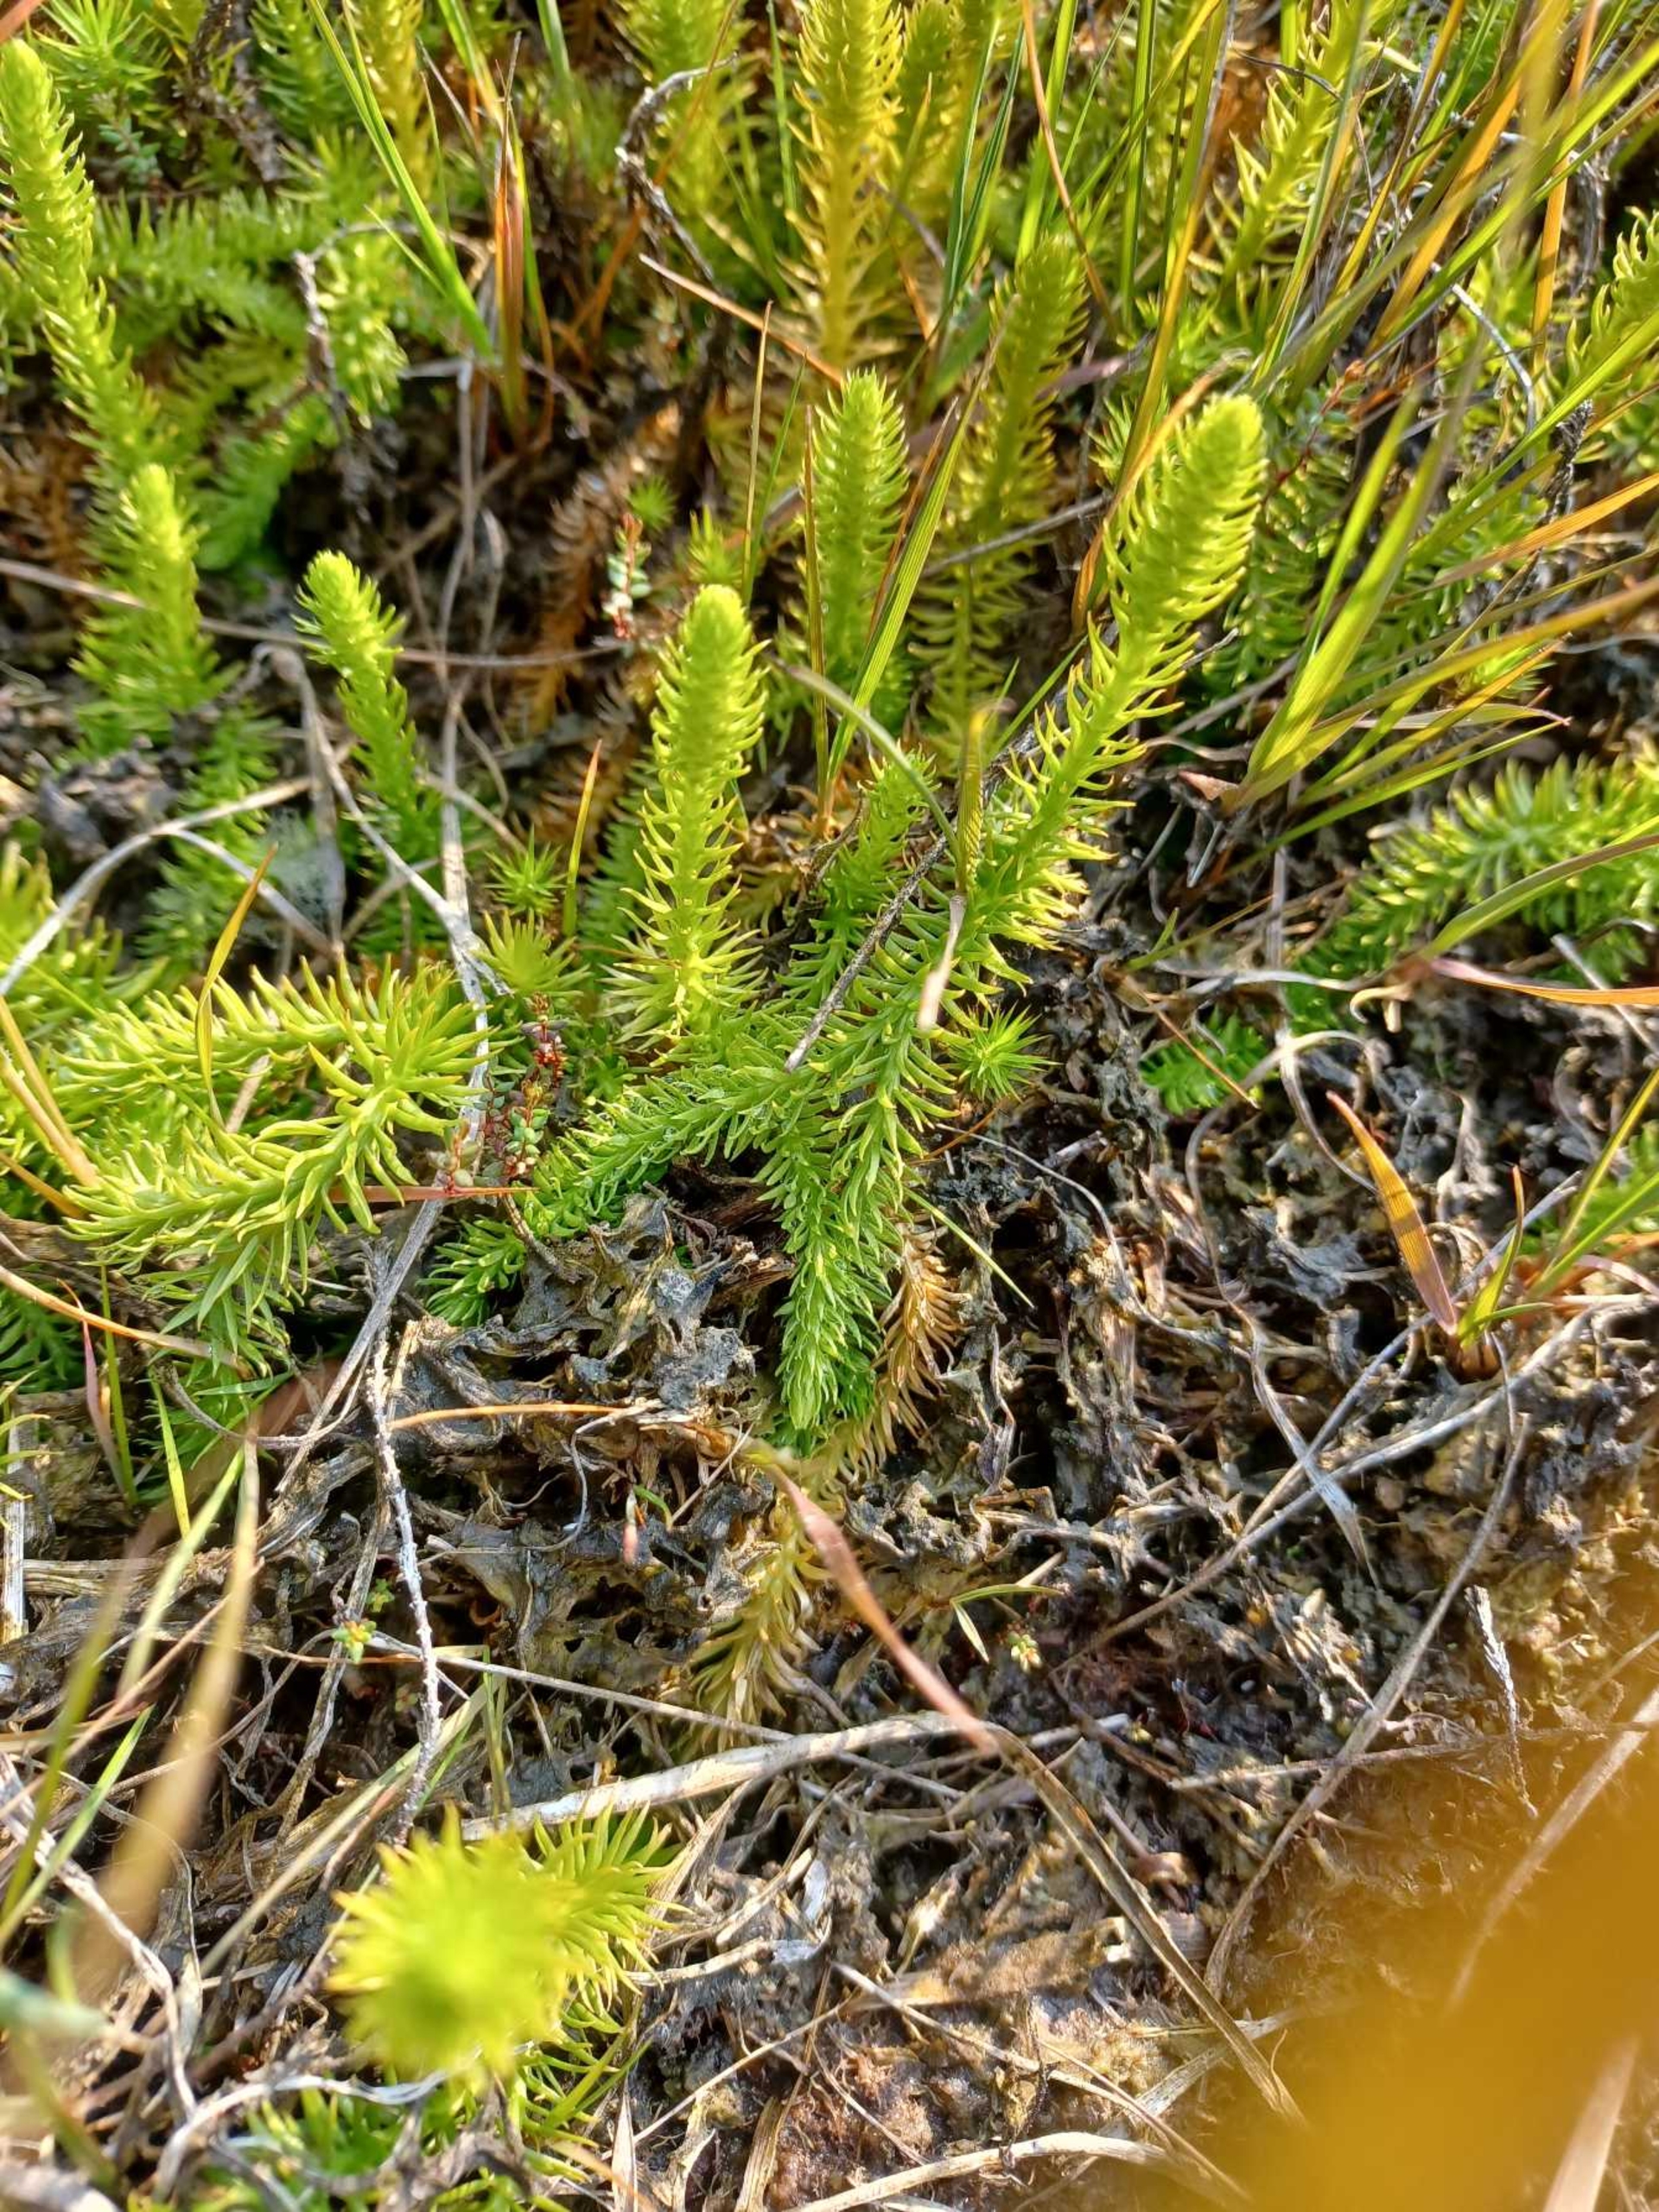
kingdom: Plantae
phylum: Tracheophyta
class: Lycopodiopsida
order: Lycopodiales
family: Lycopodiaceae
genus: Lycopodiella
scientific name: Lycopodiella inundata
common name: Liden ulvefod
